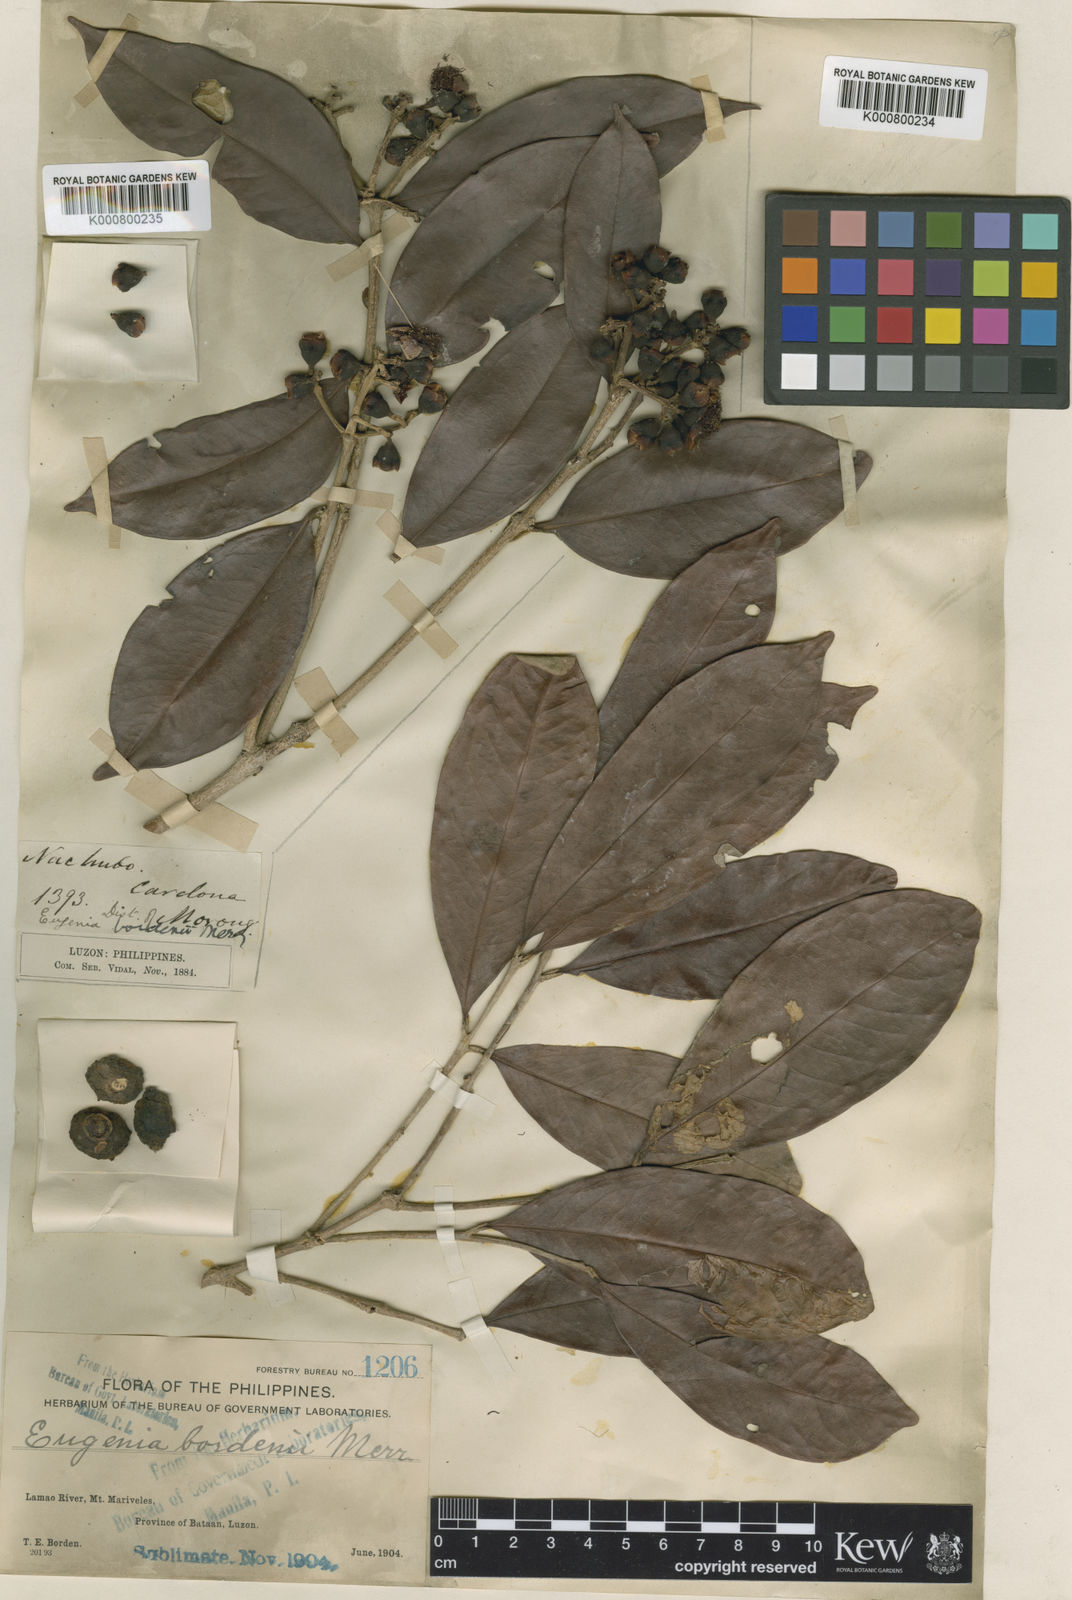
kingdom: Plantae
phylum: Tracheophyta
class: Magnoliopsida
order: Myrtales
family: Myrtaceae
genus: Syzygium
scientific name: Syzygium bordenii
